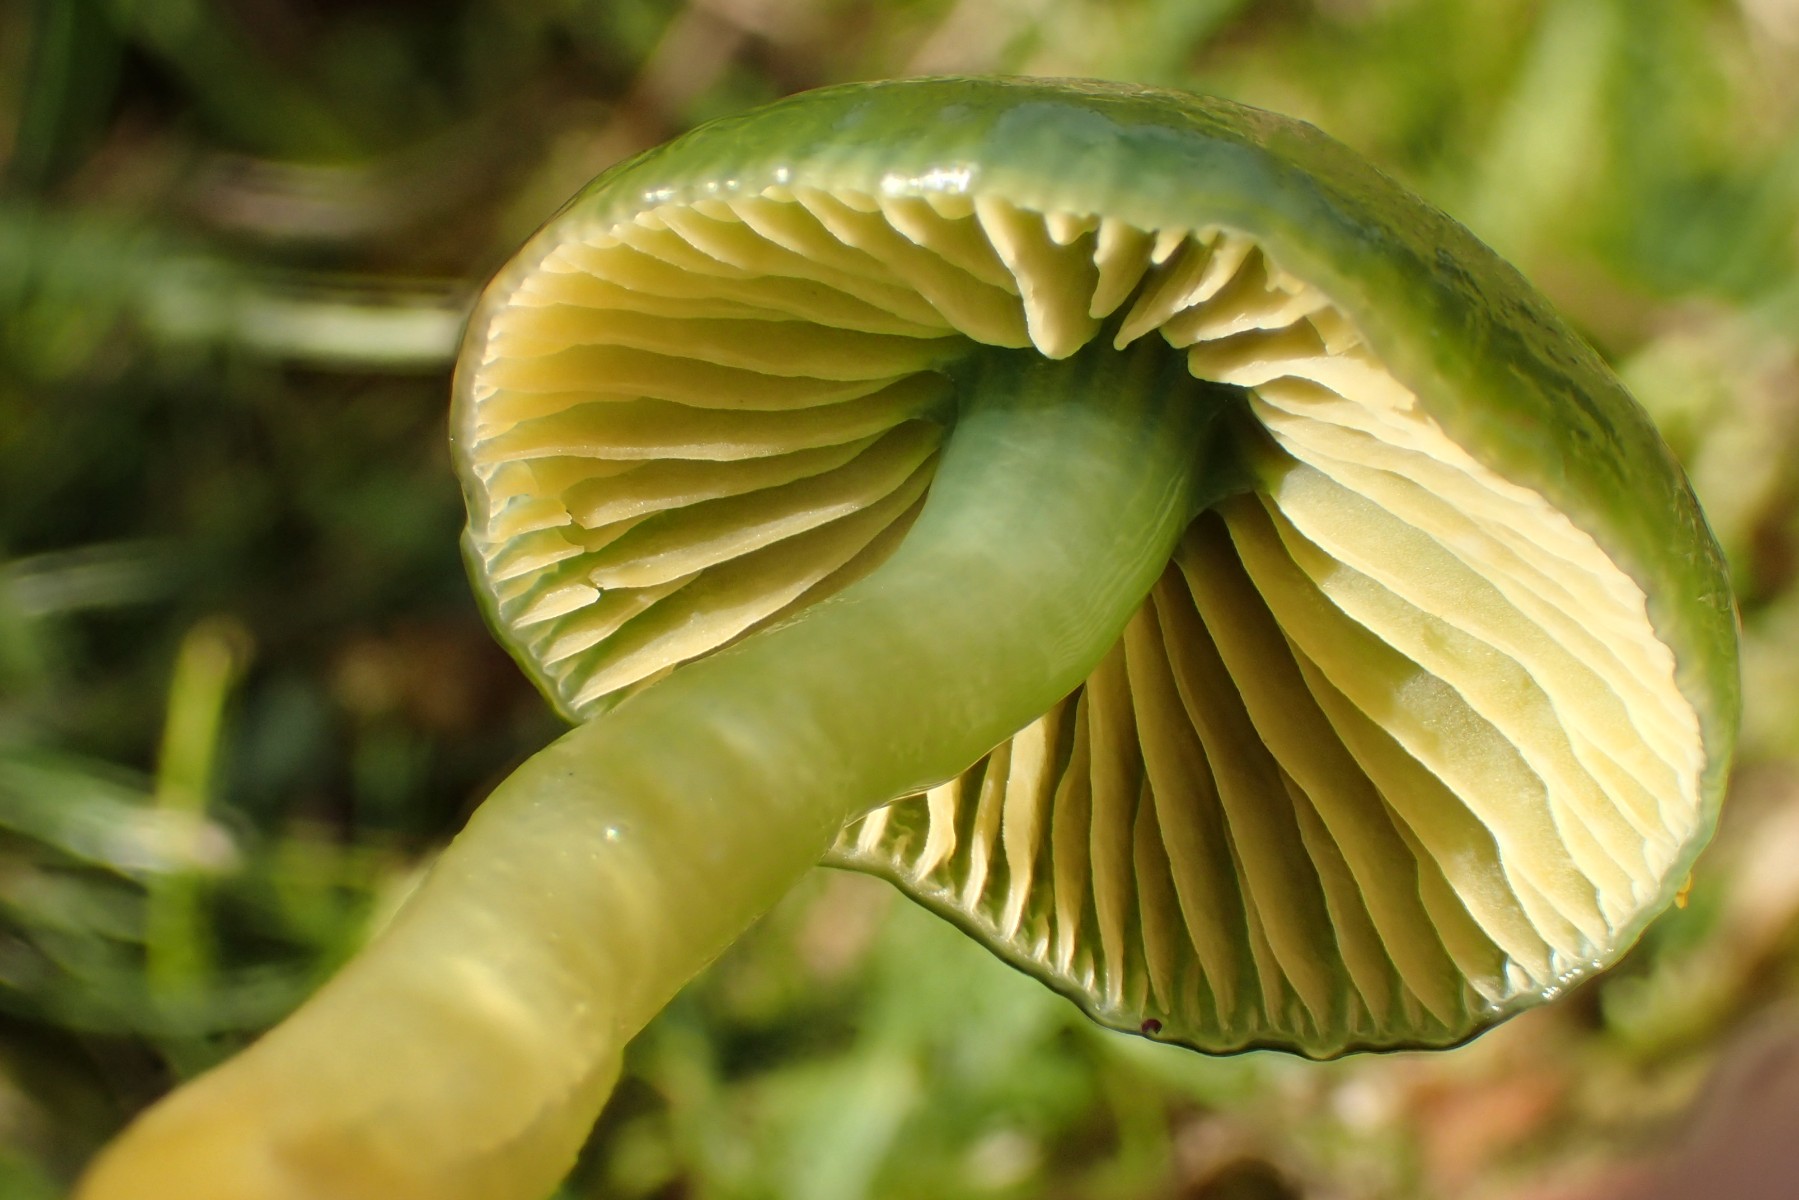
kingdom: Fungi
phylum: Basidiomycota
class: Agaricomycetes
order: Agaricales
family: Hygrophoraceae
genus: Gliophorus
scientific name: Gliophorus psittacinus
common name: papegøje-vokshat
